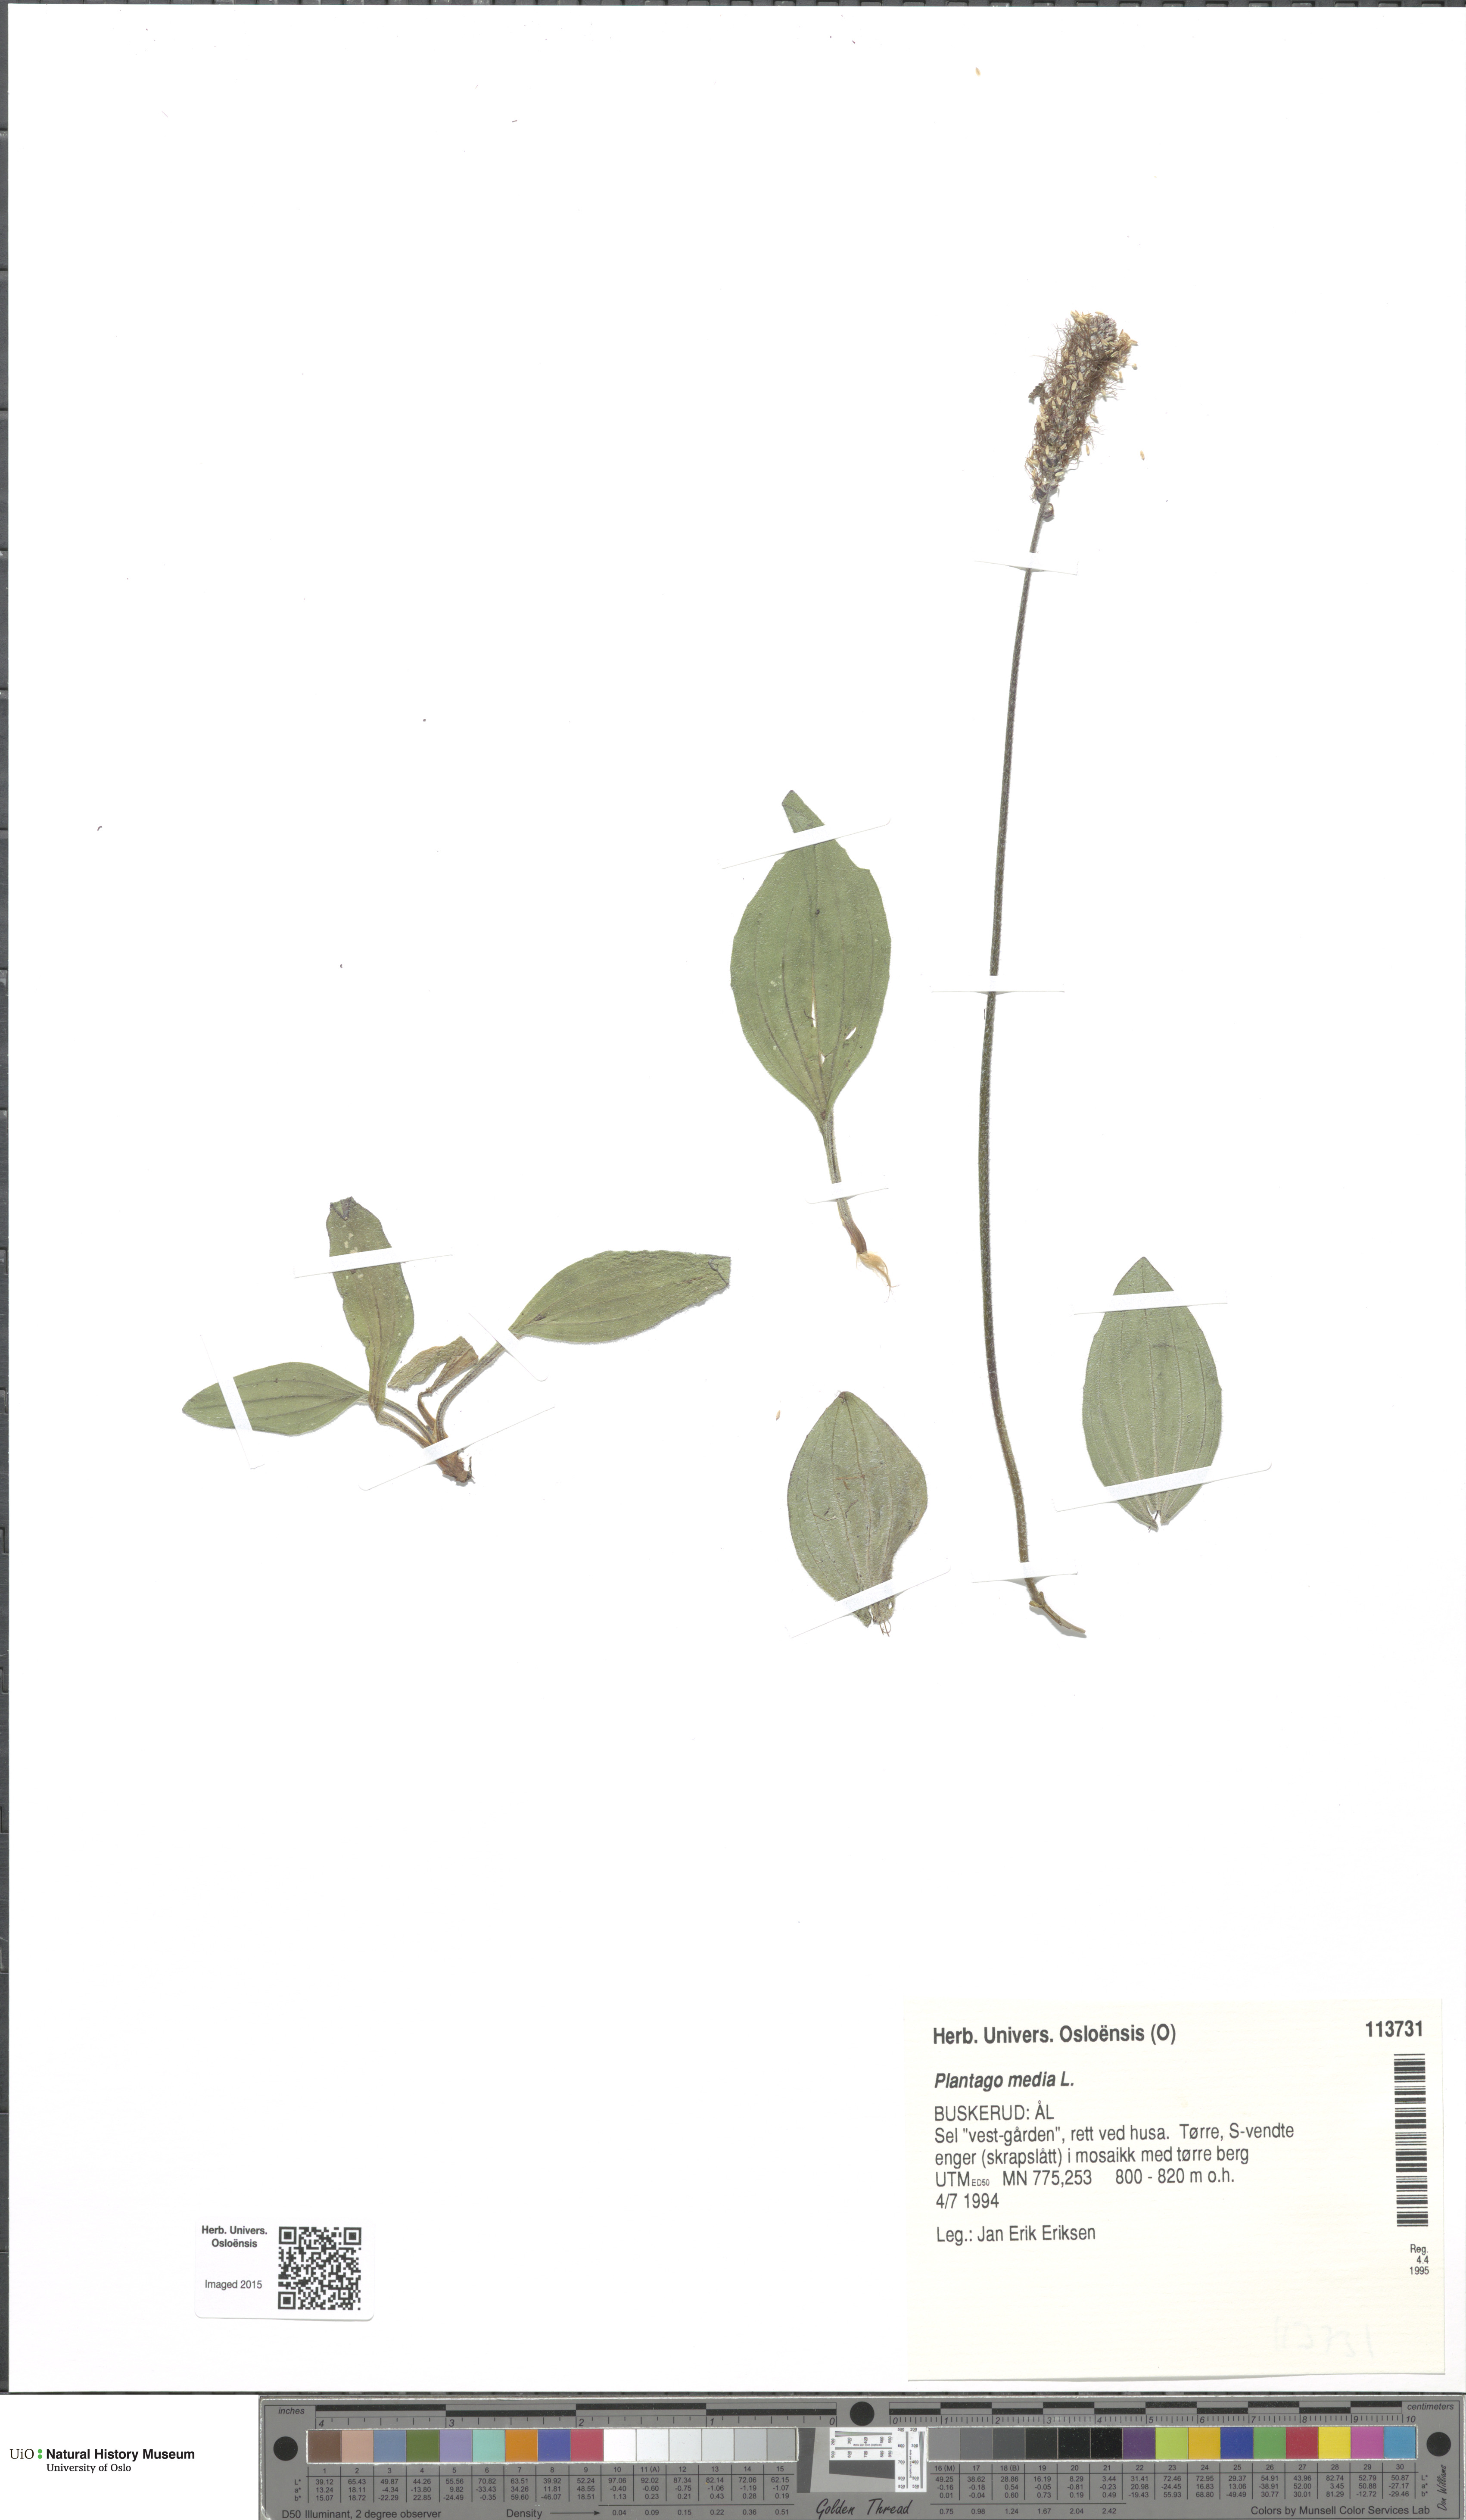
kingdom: Plantae
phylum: Tracheophyta
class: Magnoliopsida
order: Lamiales
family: Plantaginaceae
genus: Plantago
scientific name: Plantago media
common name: Hoary plantain
